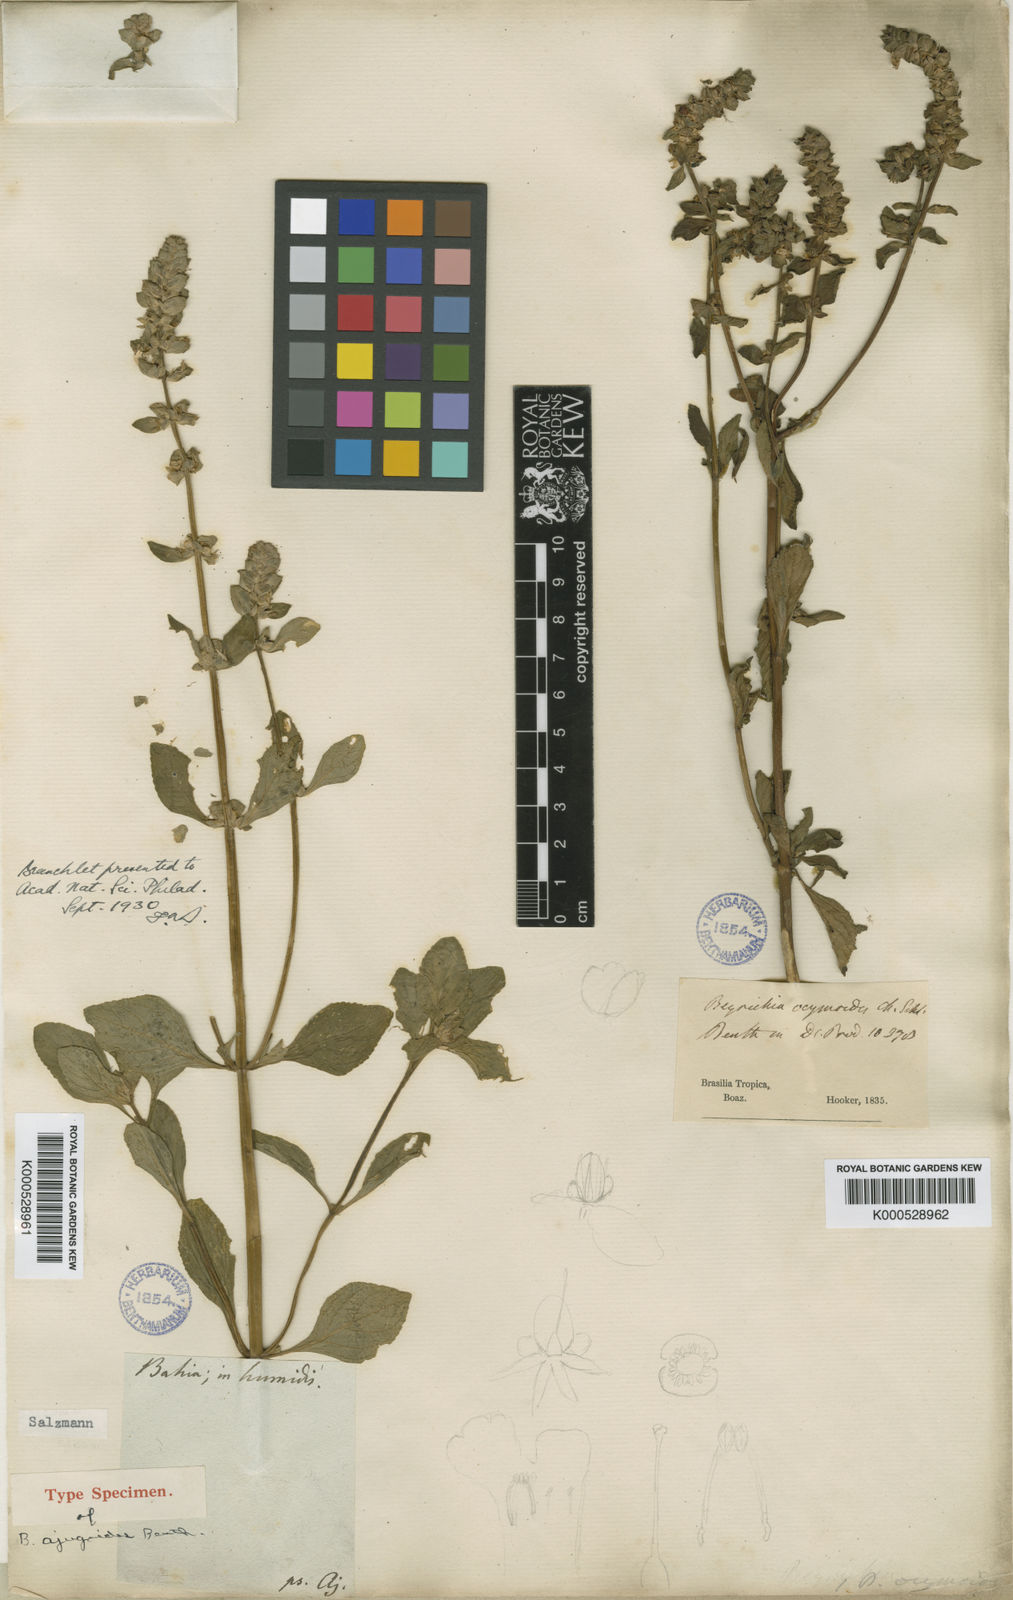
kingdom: Plantae
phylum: Tracheophyta
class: Magnoliopsida
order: Lamiales
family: Plantaginaceae
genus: Matourea
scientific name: Matourea ocymoides
